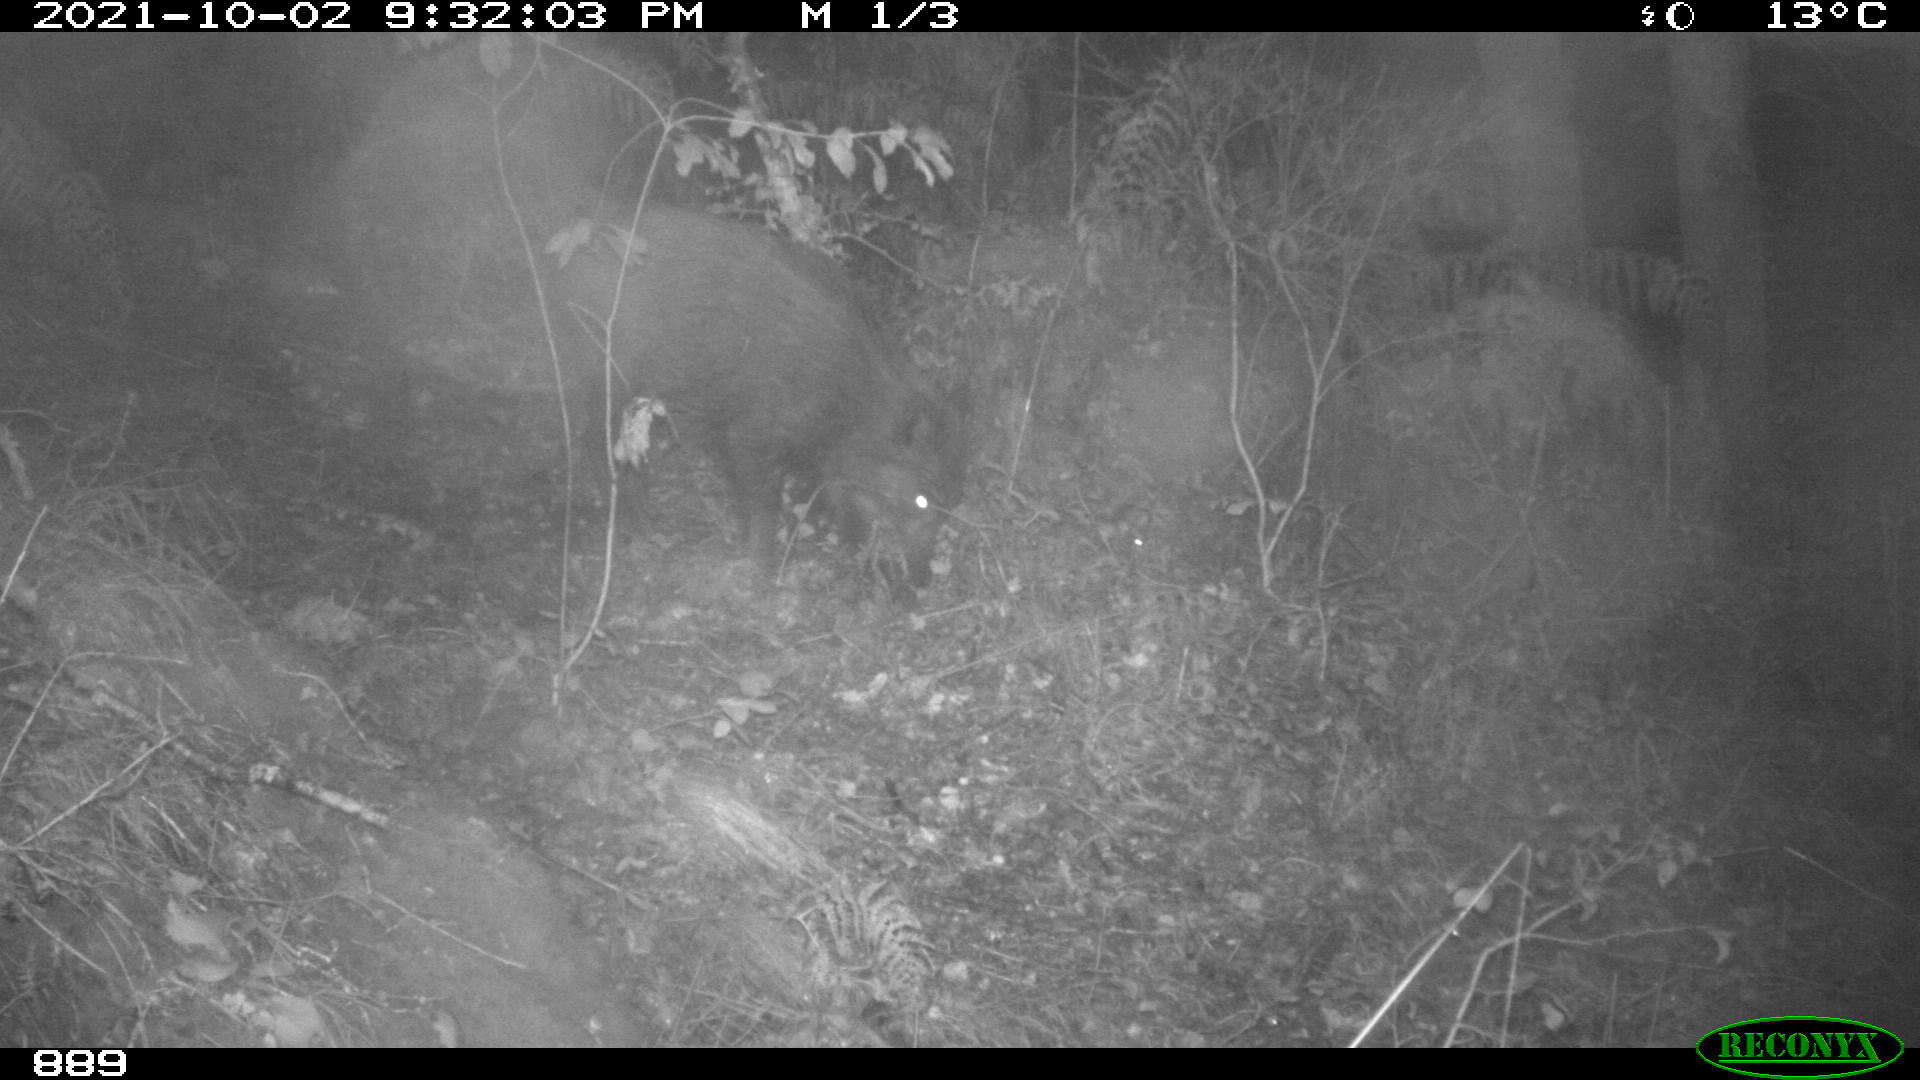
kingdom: Animalia
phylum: Chordata
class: Mammalia
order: Artiodactyla
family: Suidae
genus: Sus
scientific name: Sus scrofa
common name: Wild boar
